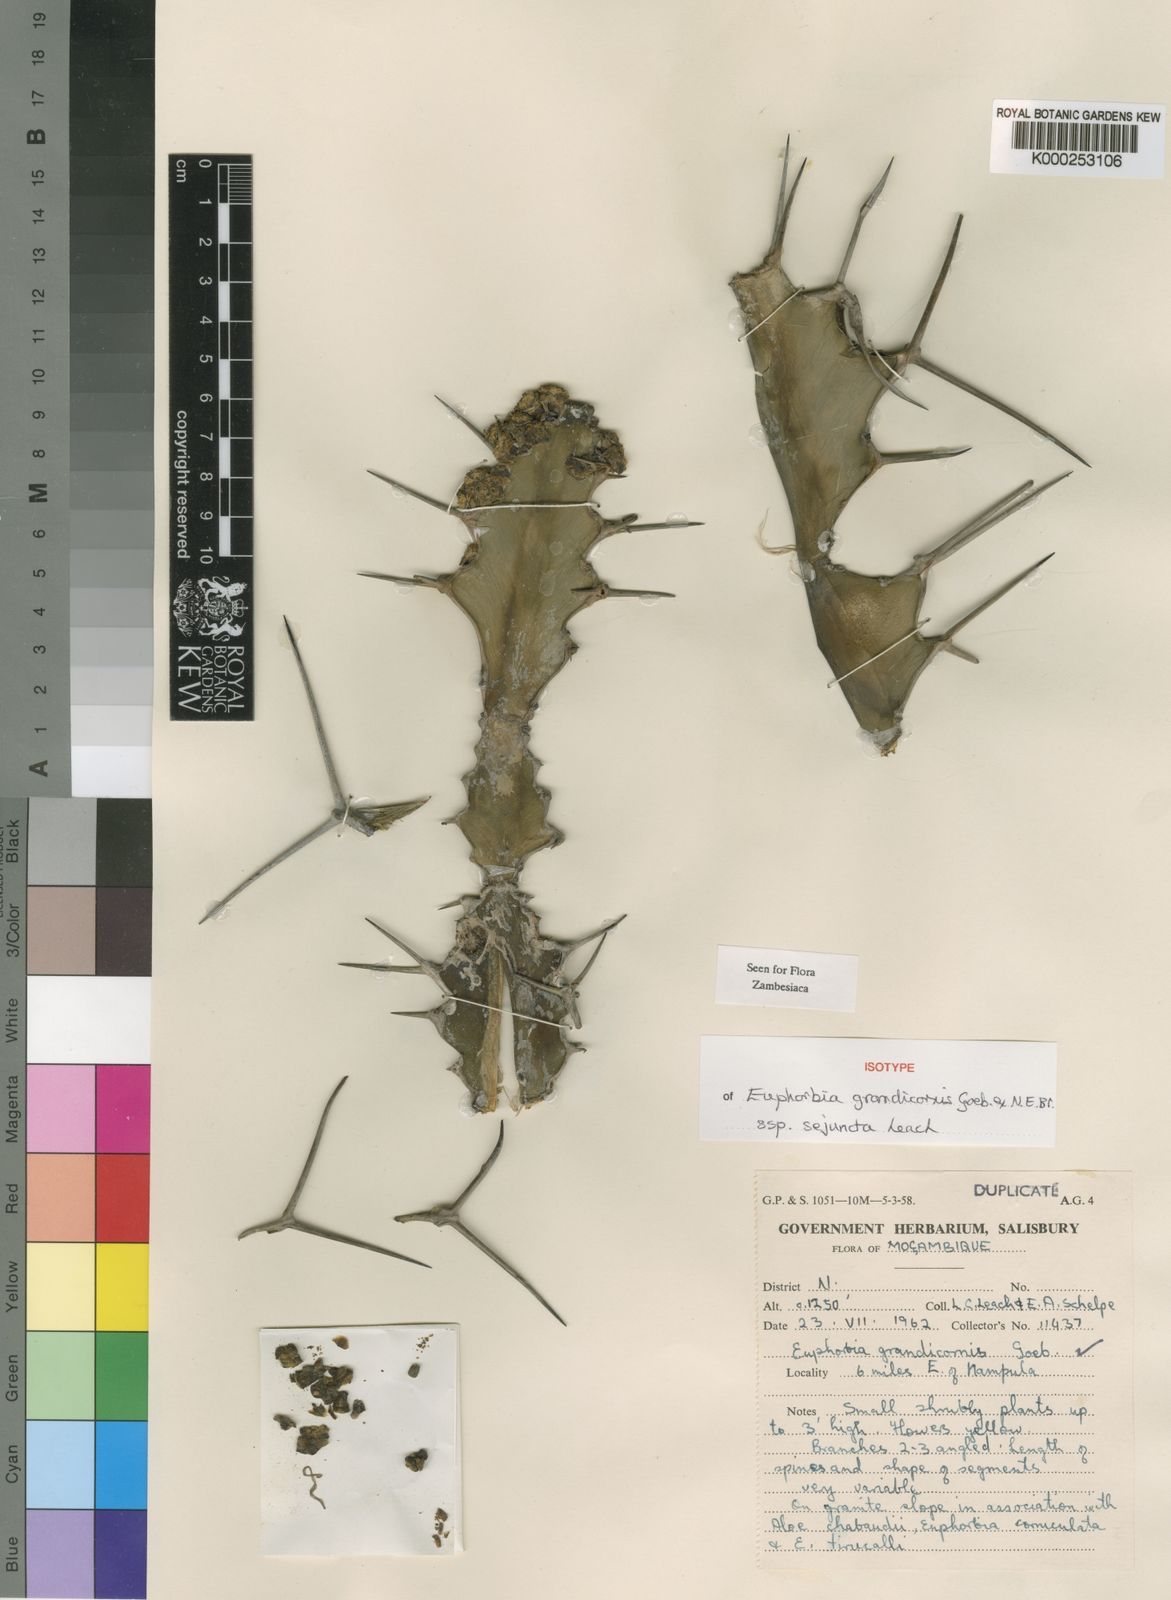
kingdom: Plantae
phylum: Tracheophyta
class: Magnoliopsida
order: Malpighiales
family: Euphorbiaceae
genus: Euphorbia
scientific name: Euphorbia grandicornis
